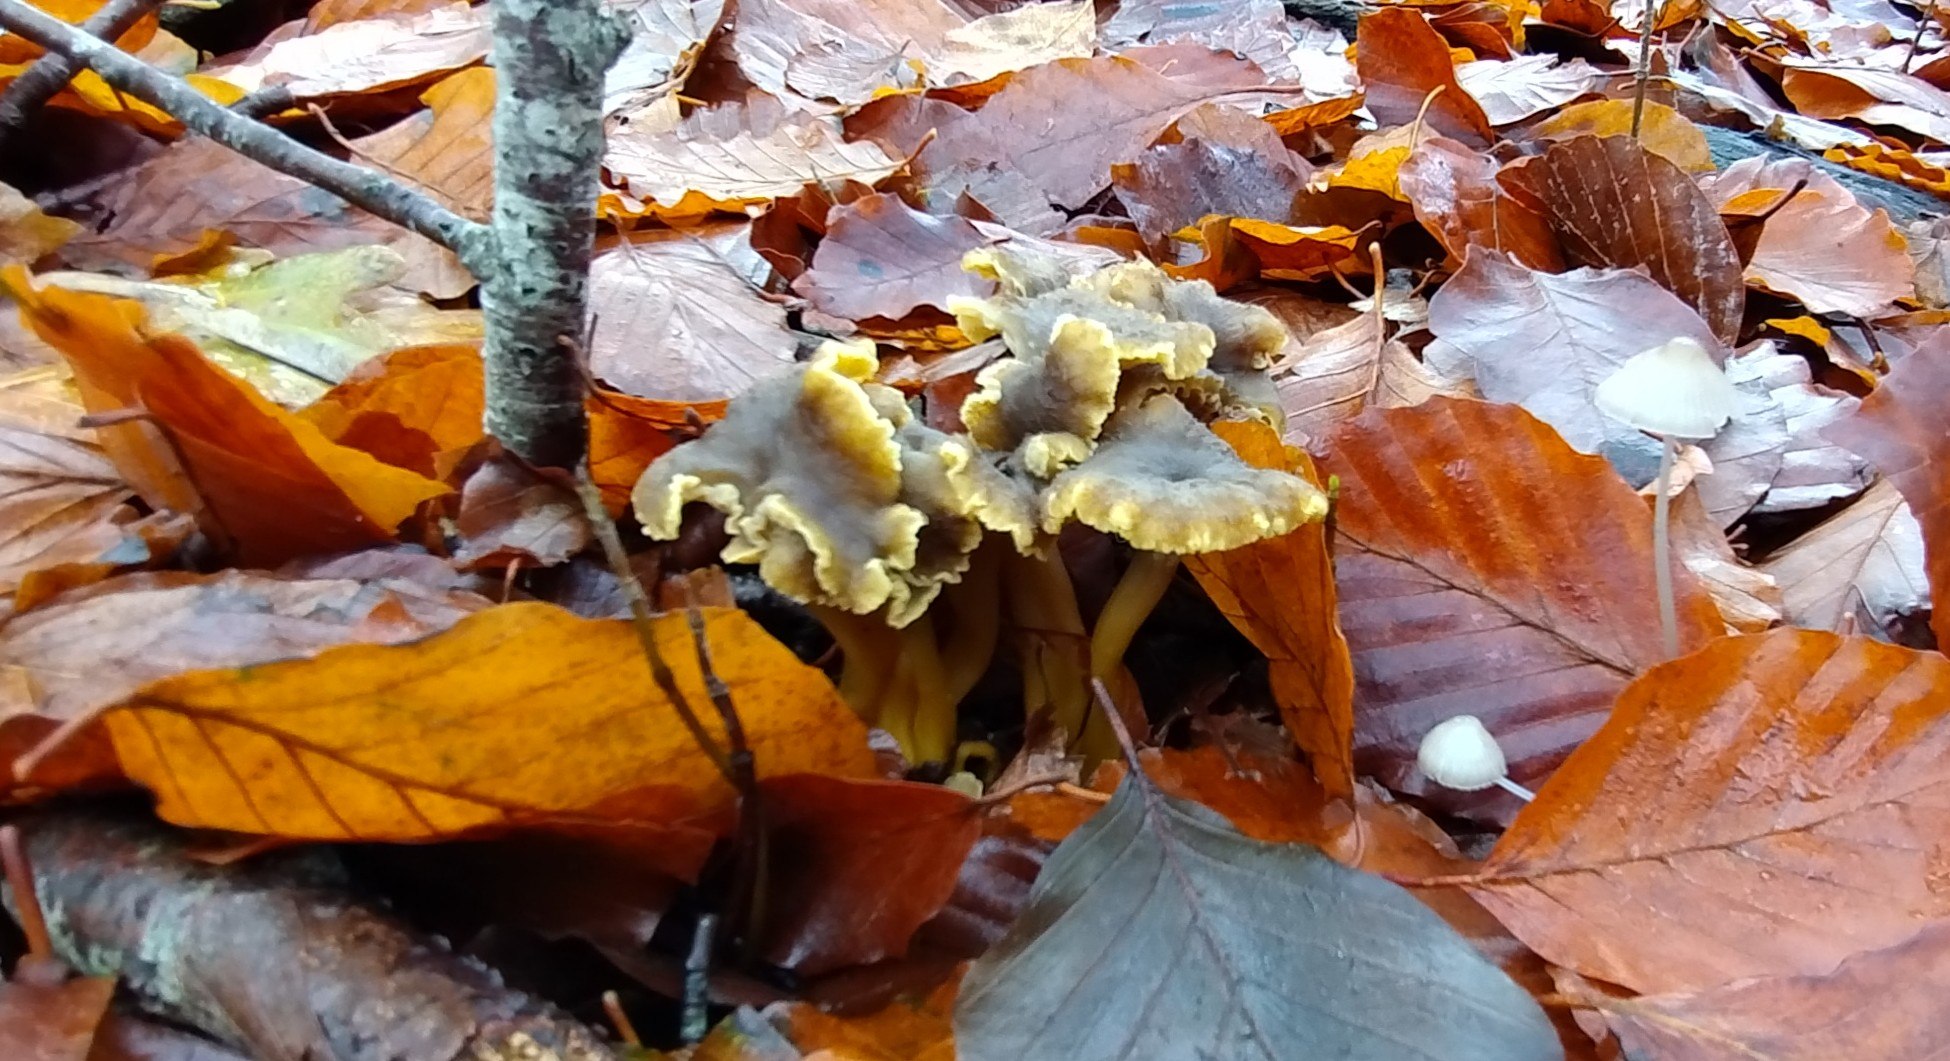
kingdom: Fungi
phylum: Basidiomycota
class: Agaricomycetes
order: Cantharellales
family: Hydnaceae
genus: Craterellus
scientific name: Craterellus tubaeformis
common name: tragt-kantarel
